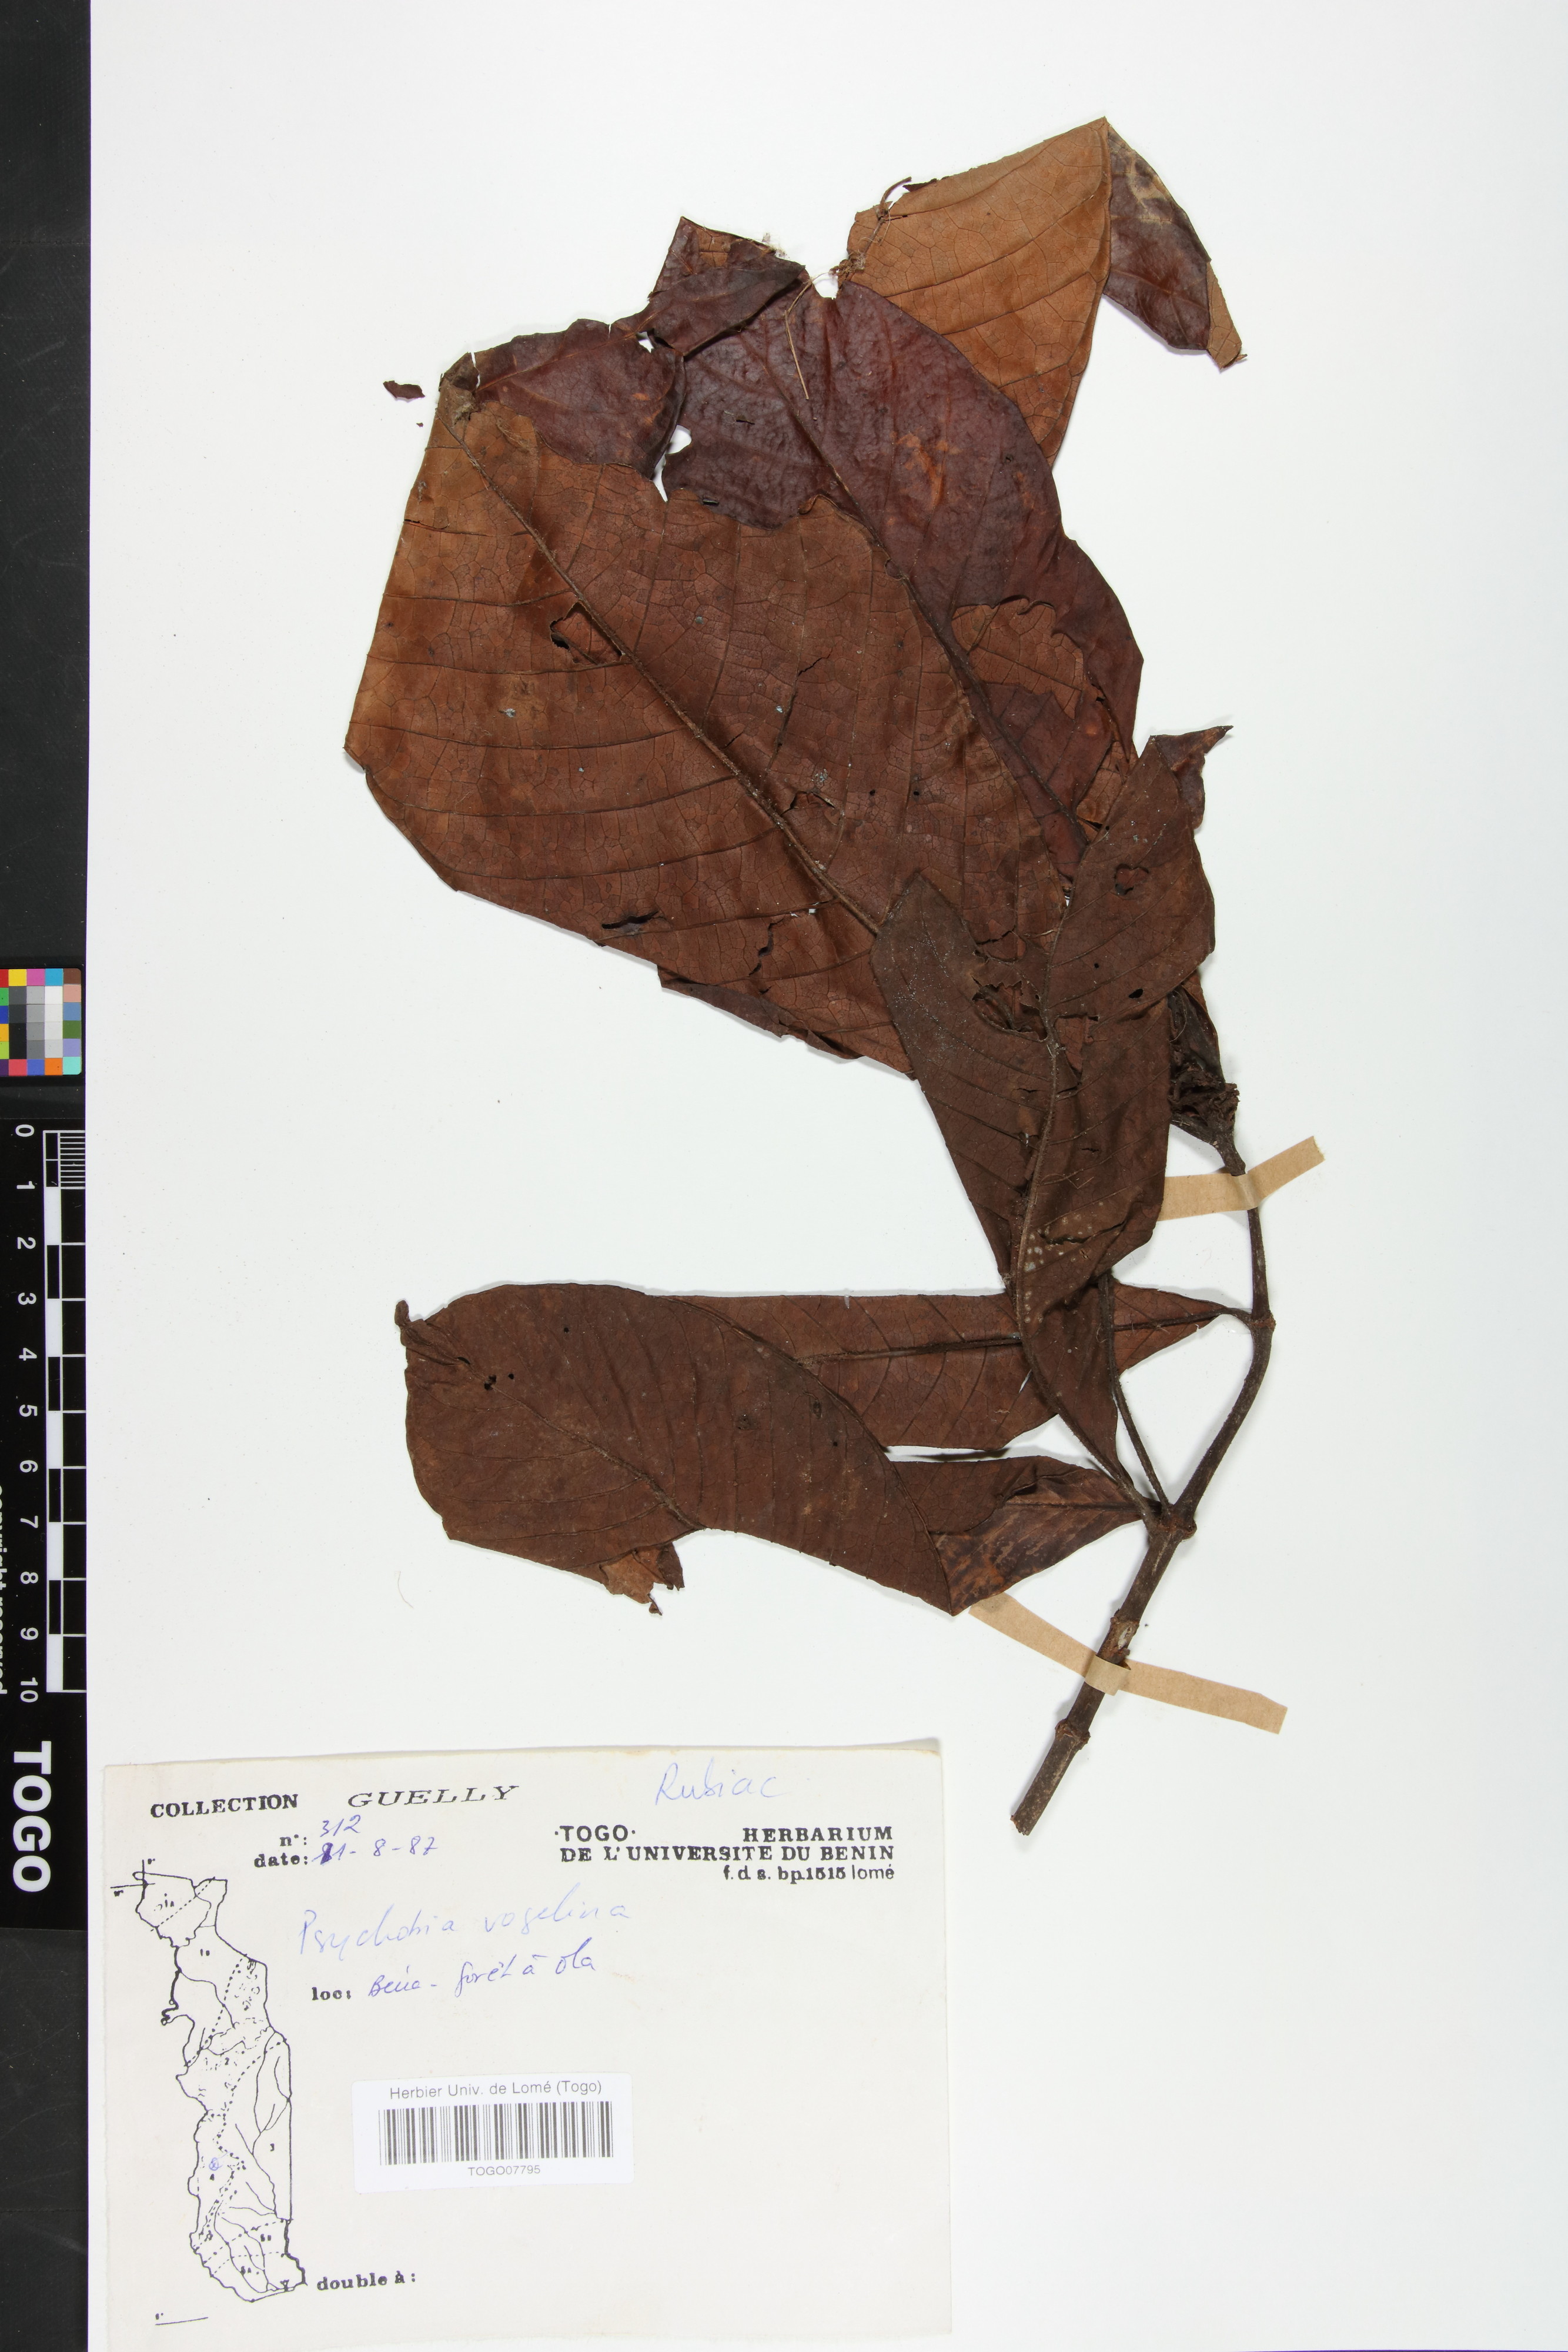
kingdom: Plantae
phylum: Tracheophyta
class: Magnoliopsida
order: Gentianales
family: Rubiaceae
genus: Psychotria
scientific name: Psychotria vogeliana
